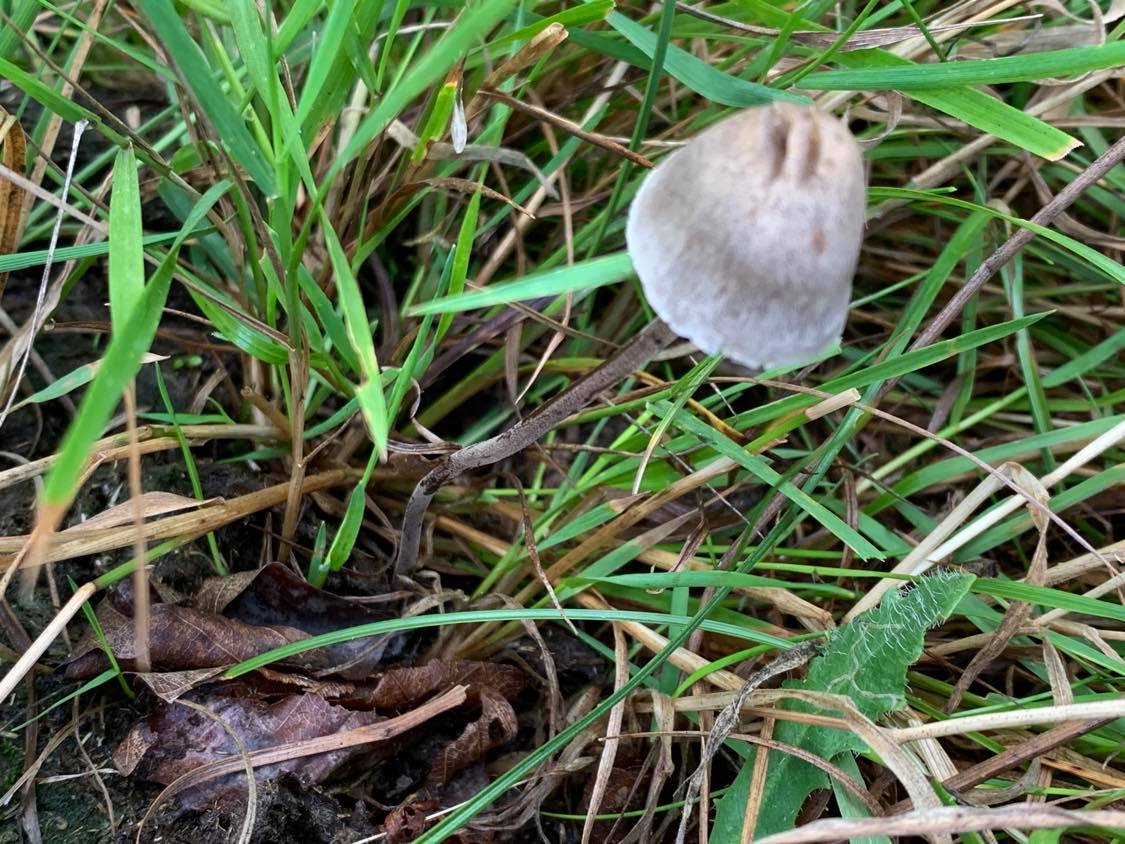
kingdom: Fungi
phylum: Basidiomycota
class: Agaricomycetes
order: Agaricales
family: Bolbitiaceae
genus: Panaeolus
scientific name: Panaeolus acuminatus
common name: høj glanshat
